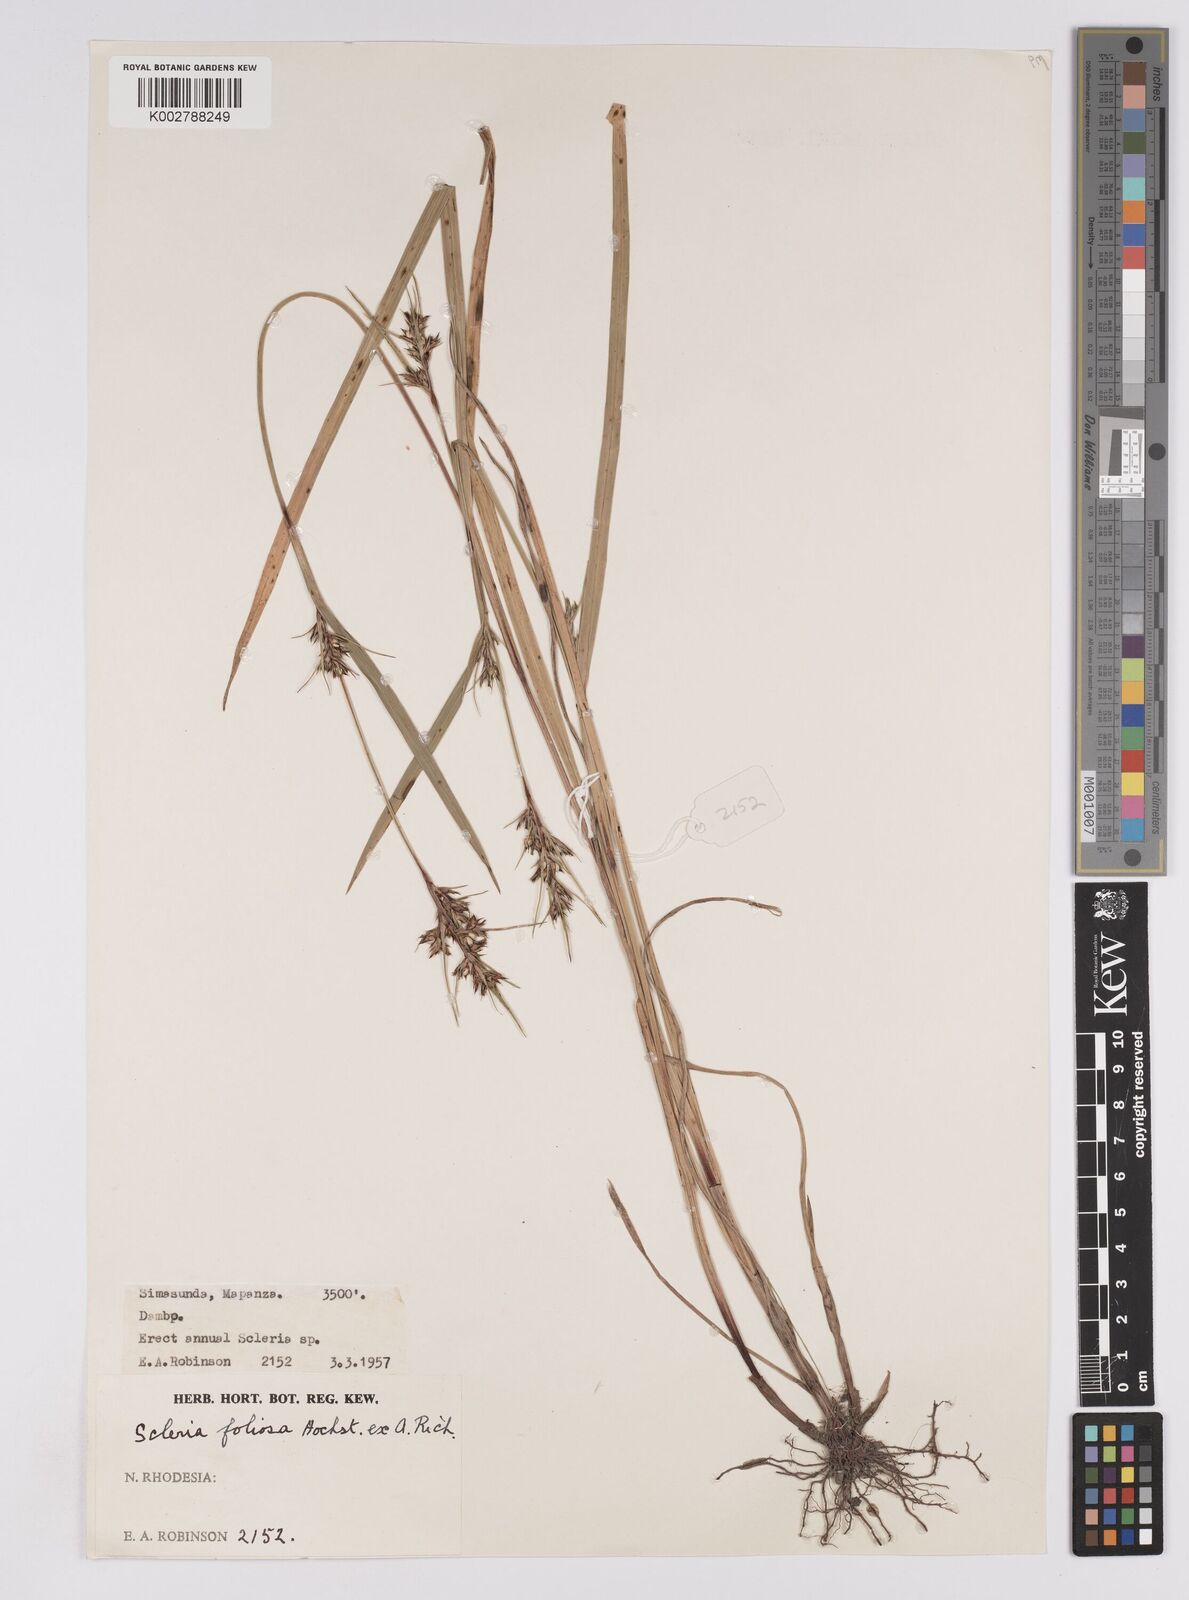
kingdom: Plantae
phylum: Tracheophyta
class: Liliopsida
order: Poales
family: Cyperaceae
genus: Scleria
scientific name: Scleria foliosa
